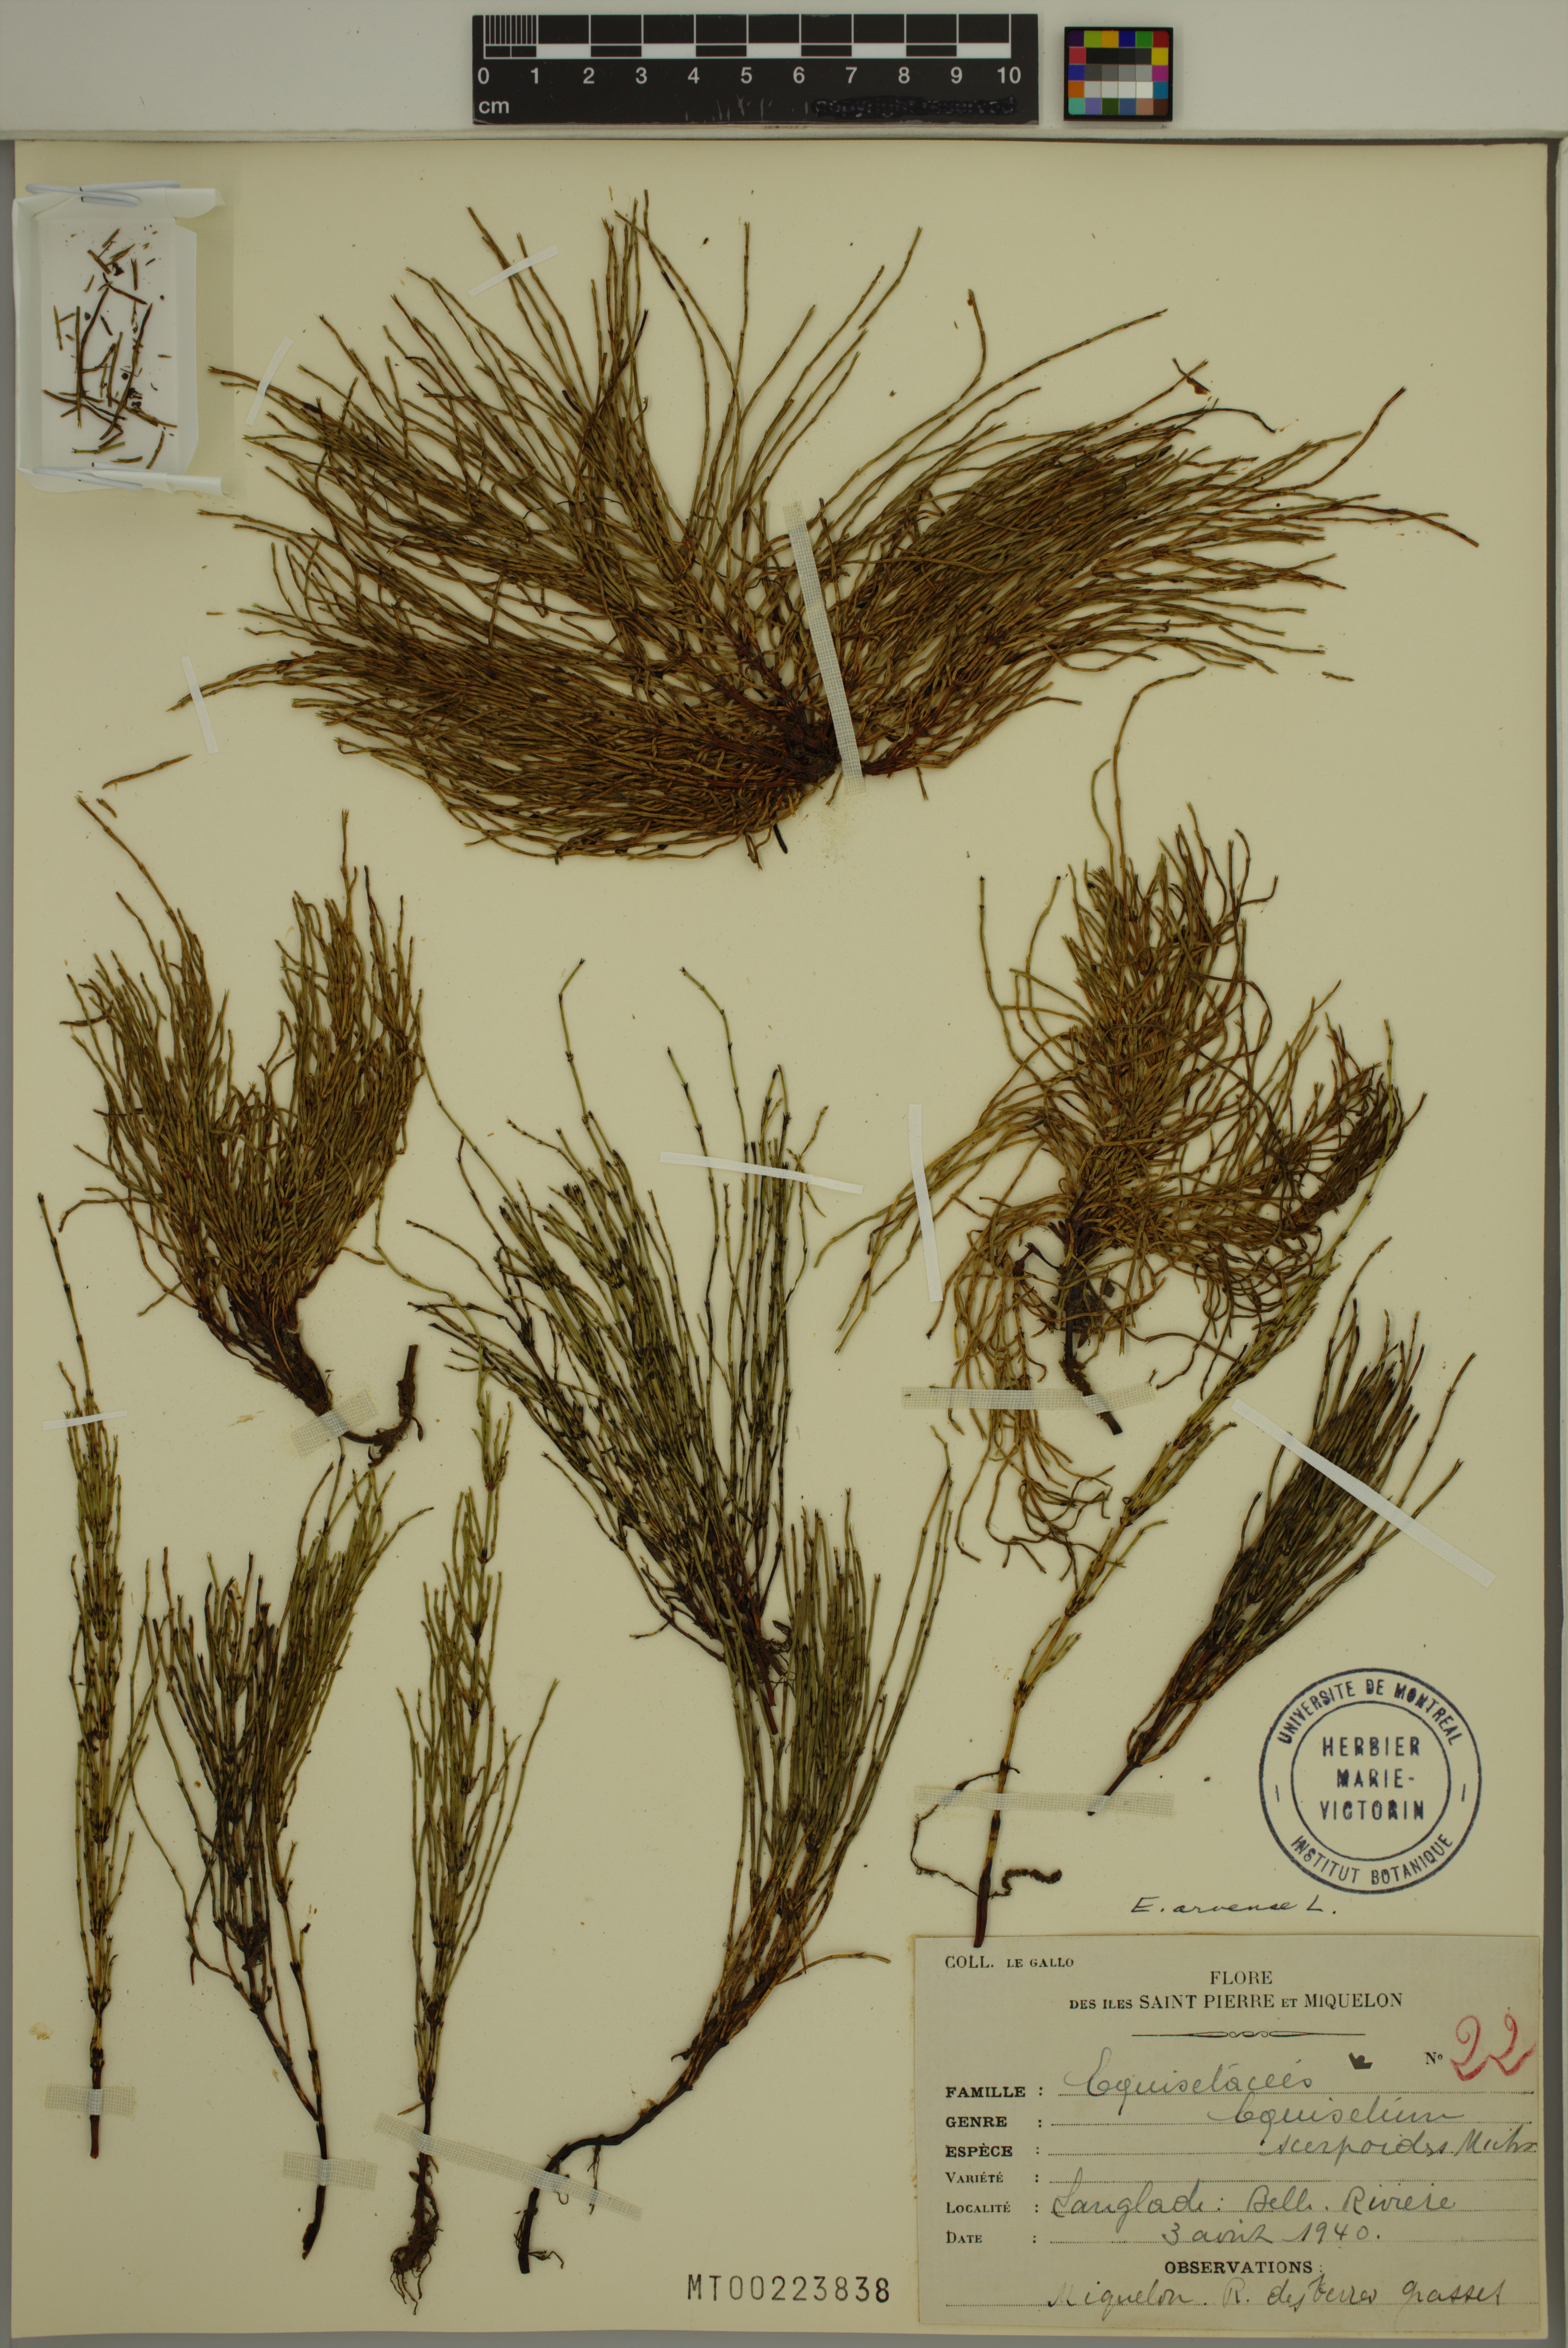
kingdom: Plantae
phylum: Tracheophyta
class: Polypodiopsida
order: Equisetales
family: Equisetaceae
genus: Equisetum
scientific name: Equisetum arvense
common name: Field horsetail
